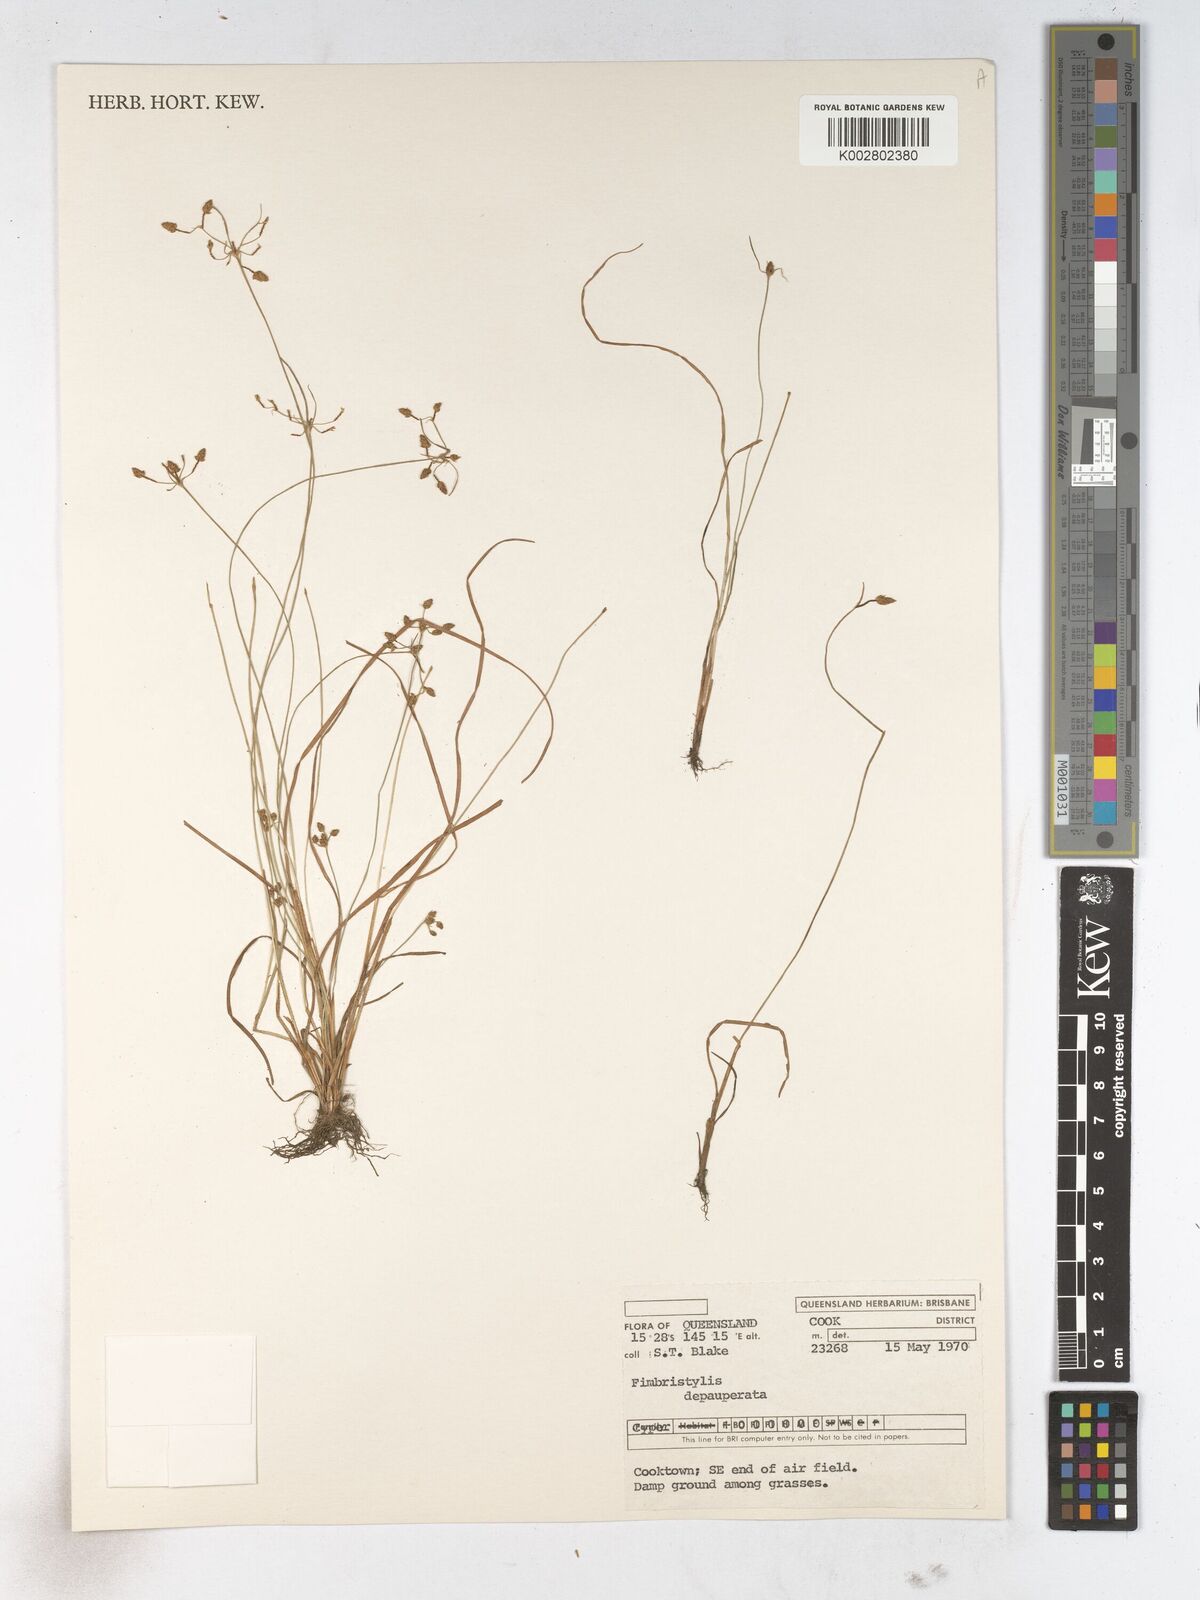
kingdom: Plantae
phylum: Tracheophyta
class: Liliopsida
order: Poales
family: Cyperaceae
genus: Fimbristylis
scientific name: Fimbristylis dichotoma
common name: Forked fimbry
